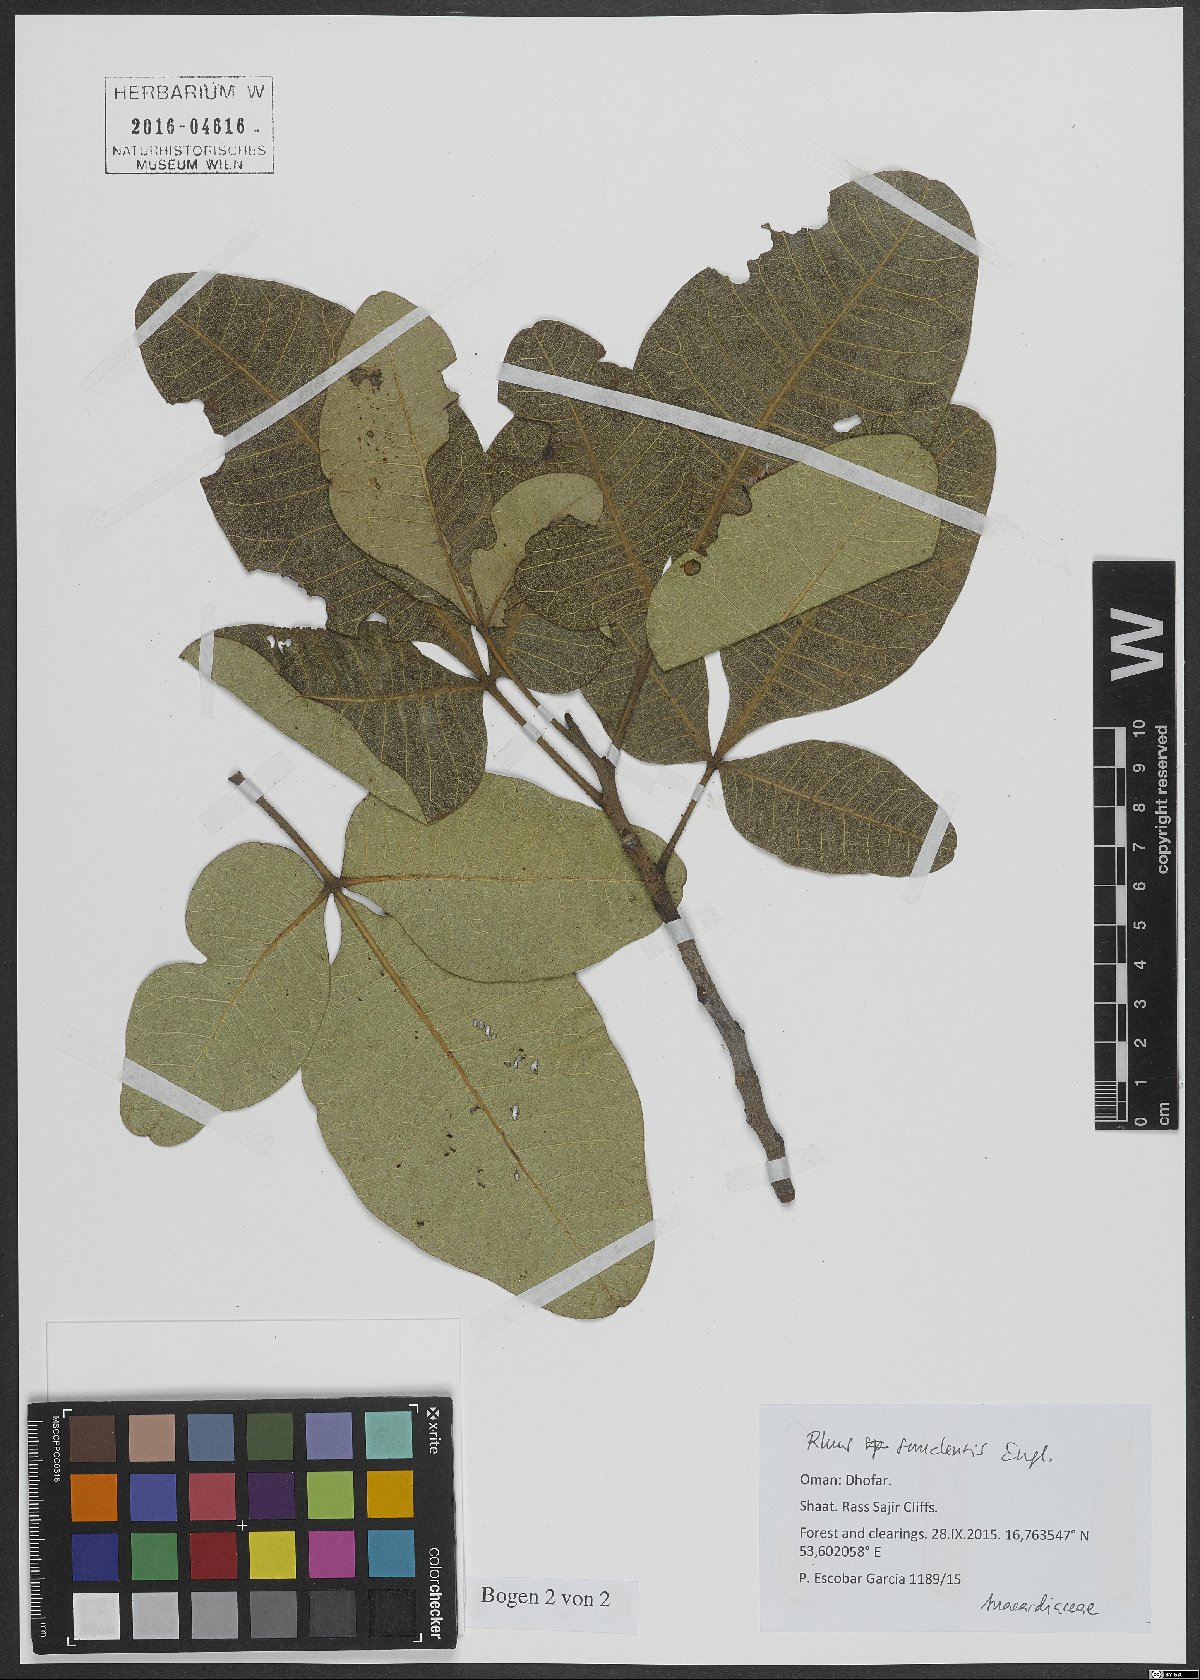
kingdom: Plantae
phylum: Tracheophyta
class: Magnoliopsida
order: Sapindales
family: Anacardiaceae
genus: Searsia
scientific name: Searsia somalensis
